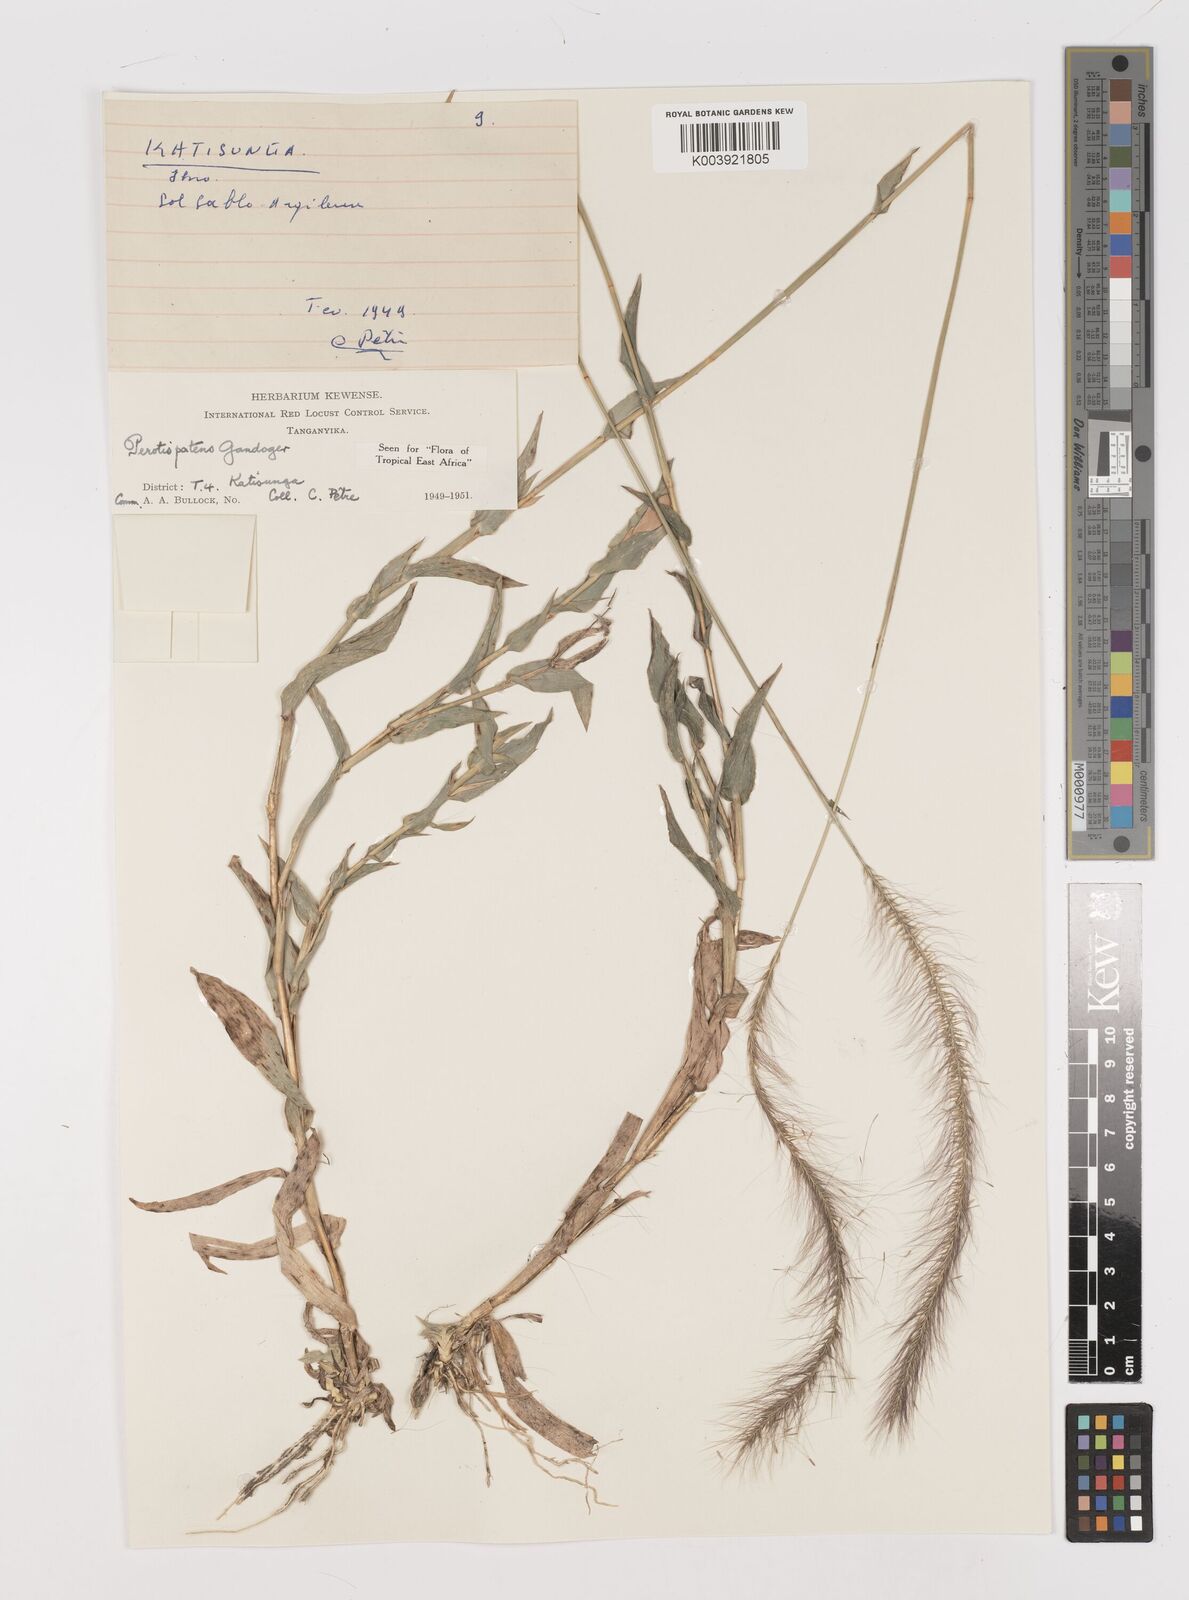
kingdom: Plantae
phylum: Tracheophyta
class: Liliopsida
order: Poales
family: Poaceae
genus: Perotis
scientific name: Perotis patens
